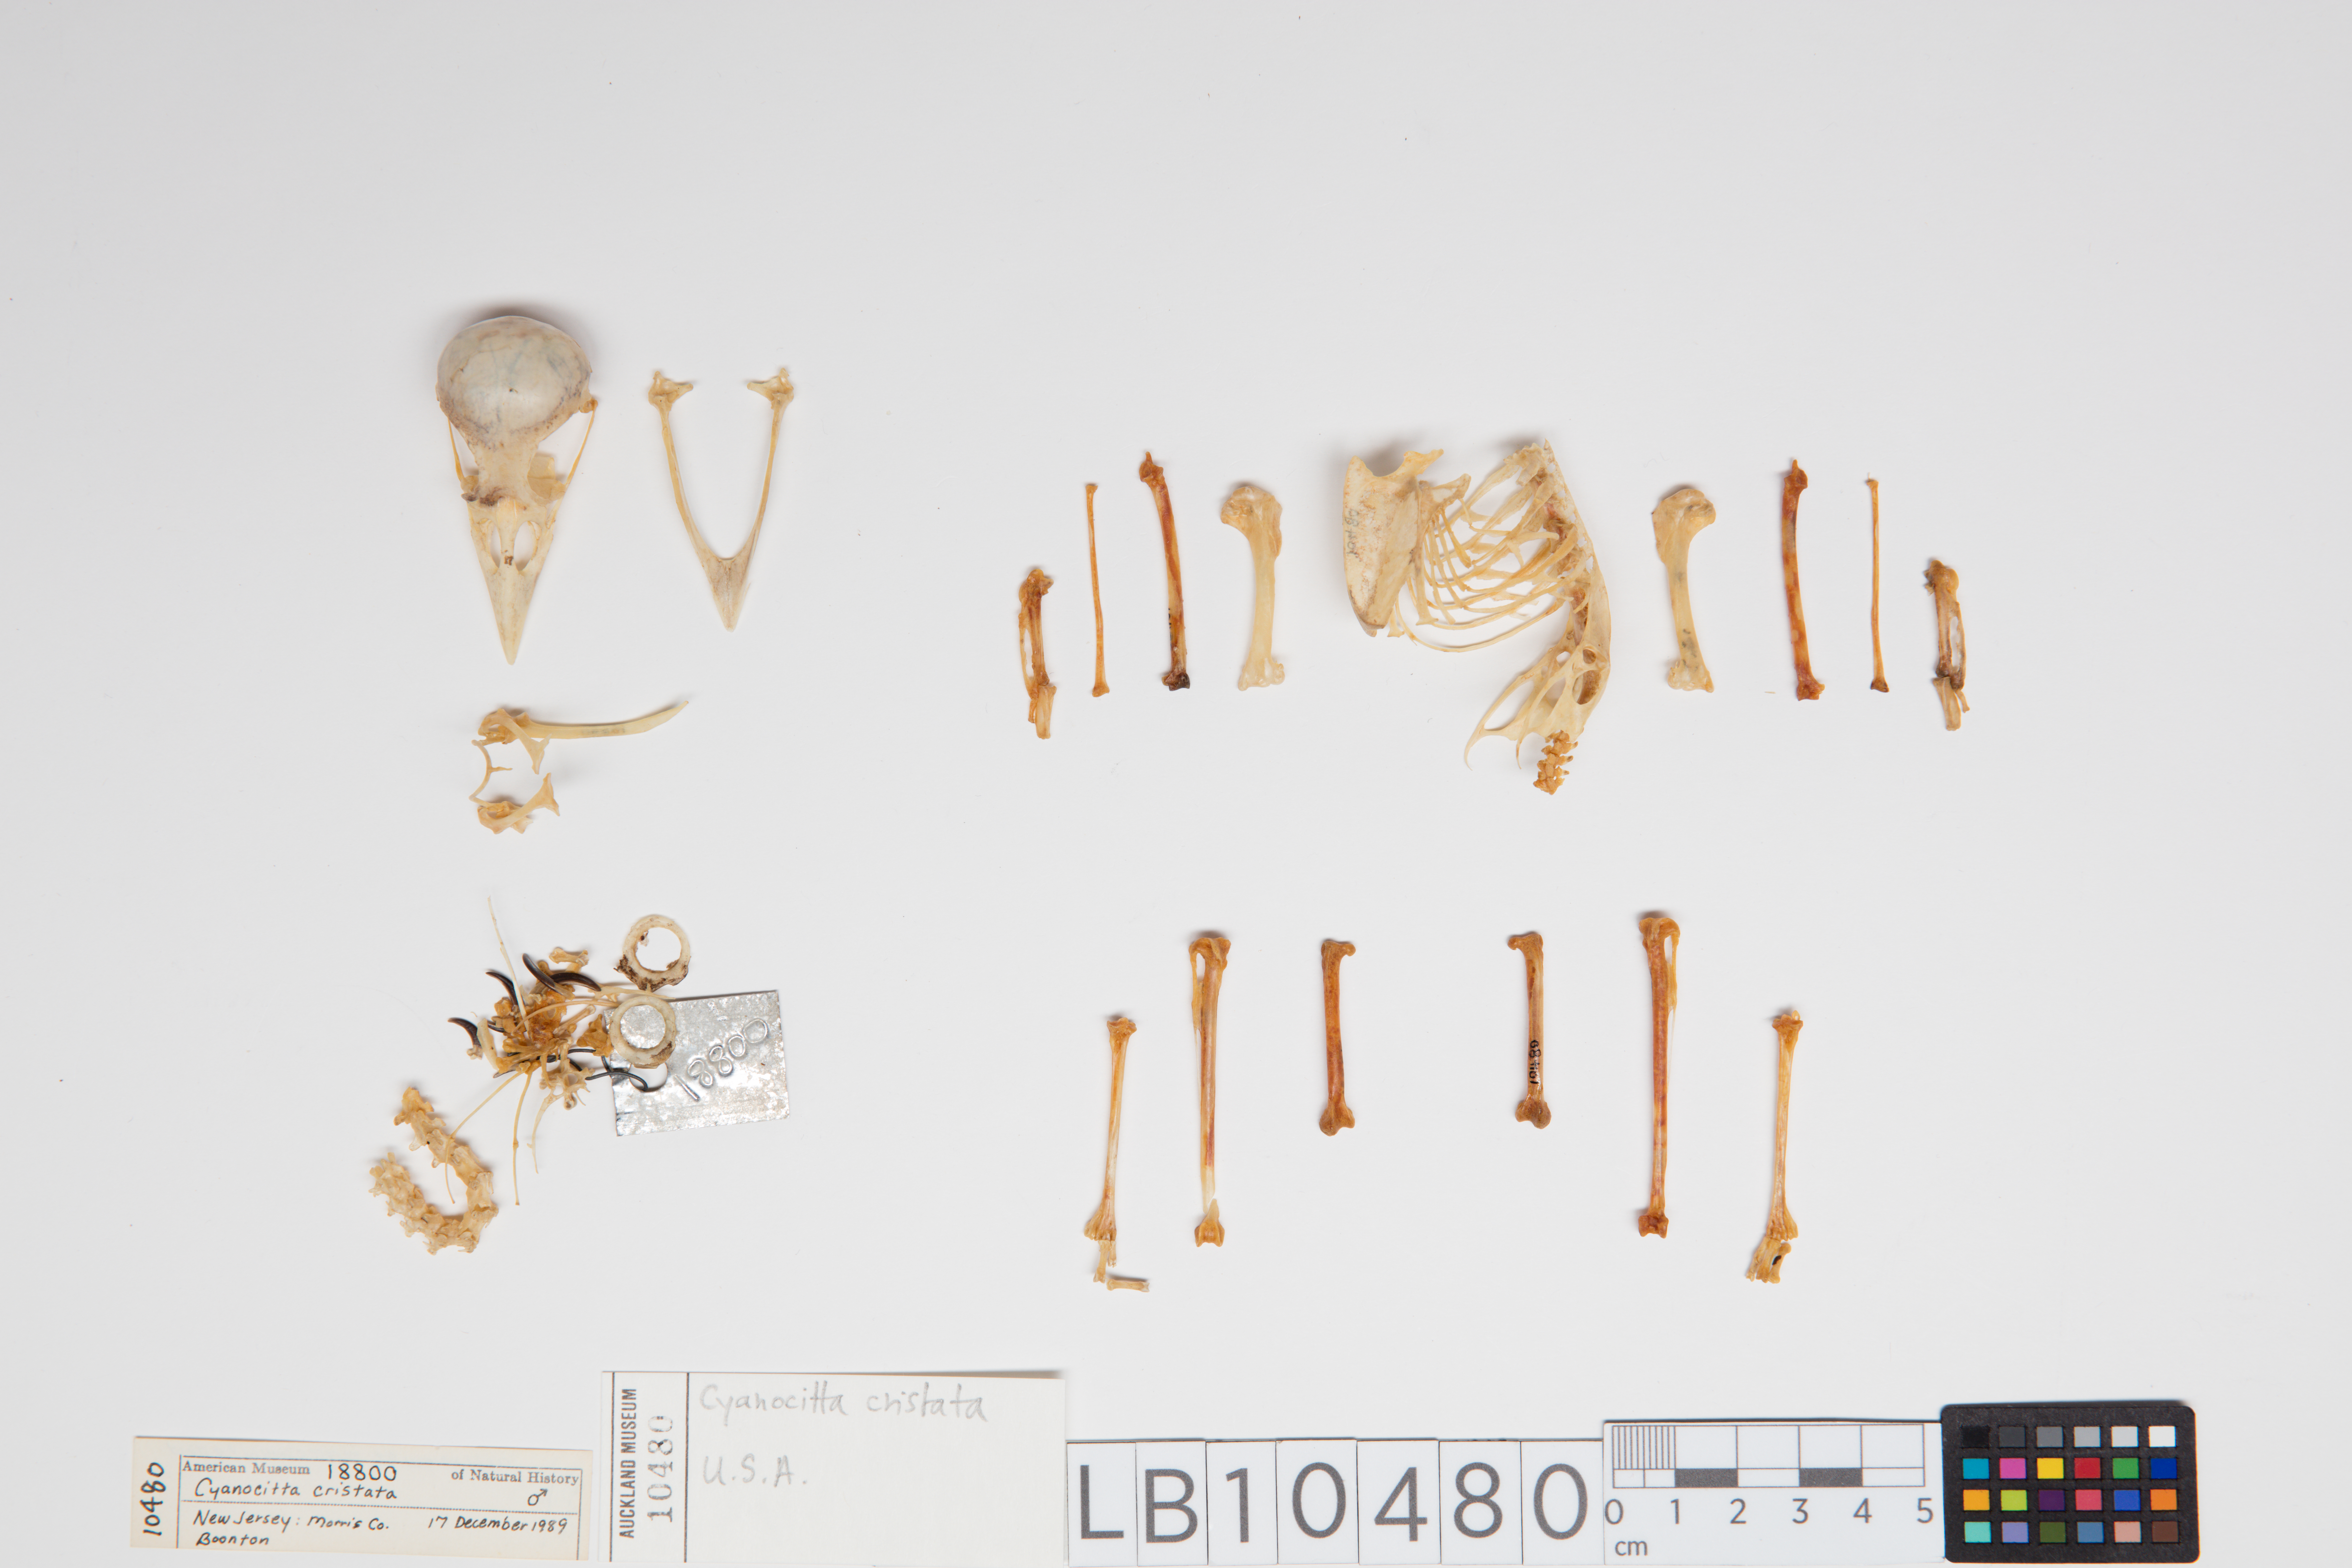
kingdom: Animalia
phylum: Chordata
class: Aves
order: Passeriformes
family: Corvidae
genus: Cyanocitta
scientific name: Cyanocitta cristata
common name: Blue jay
